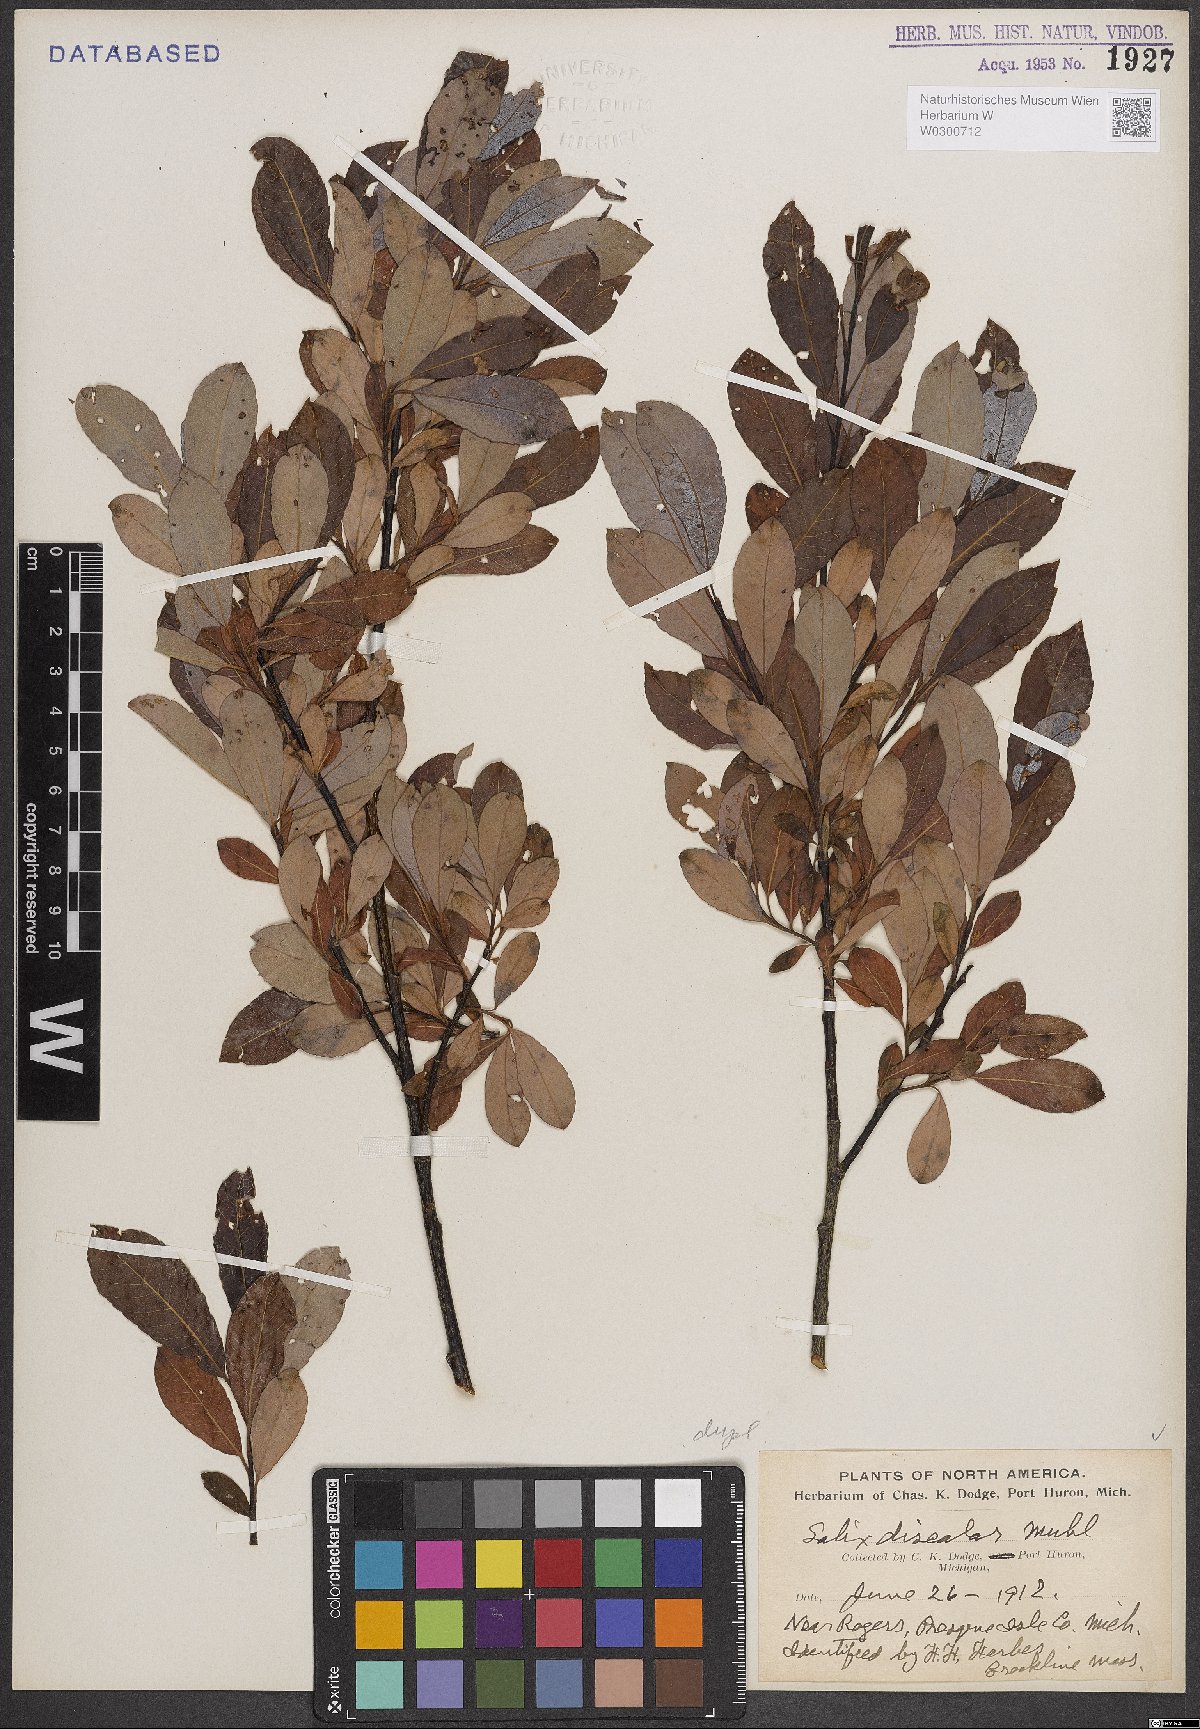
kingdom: Plantae
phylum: Tracheophyta
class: Magnoliopsida
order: Malpighiales
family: Salicaceae
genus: Salix
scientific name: Salix discolor
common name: Glaucous willow
